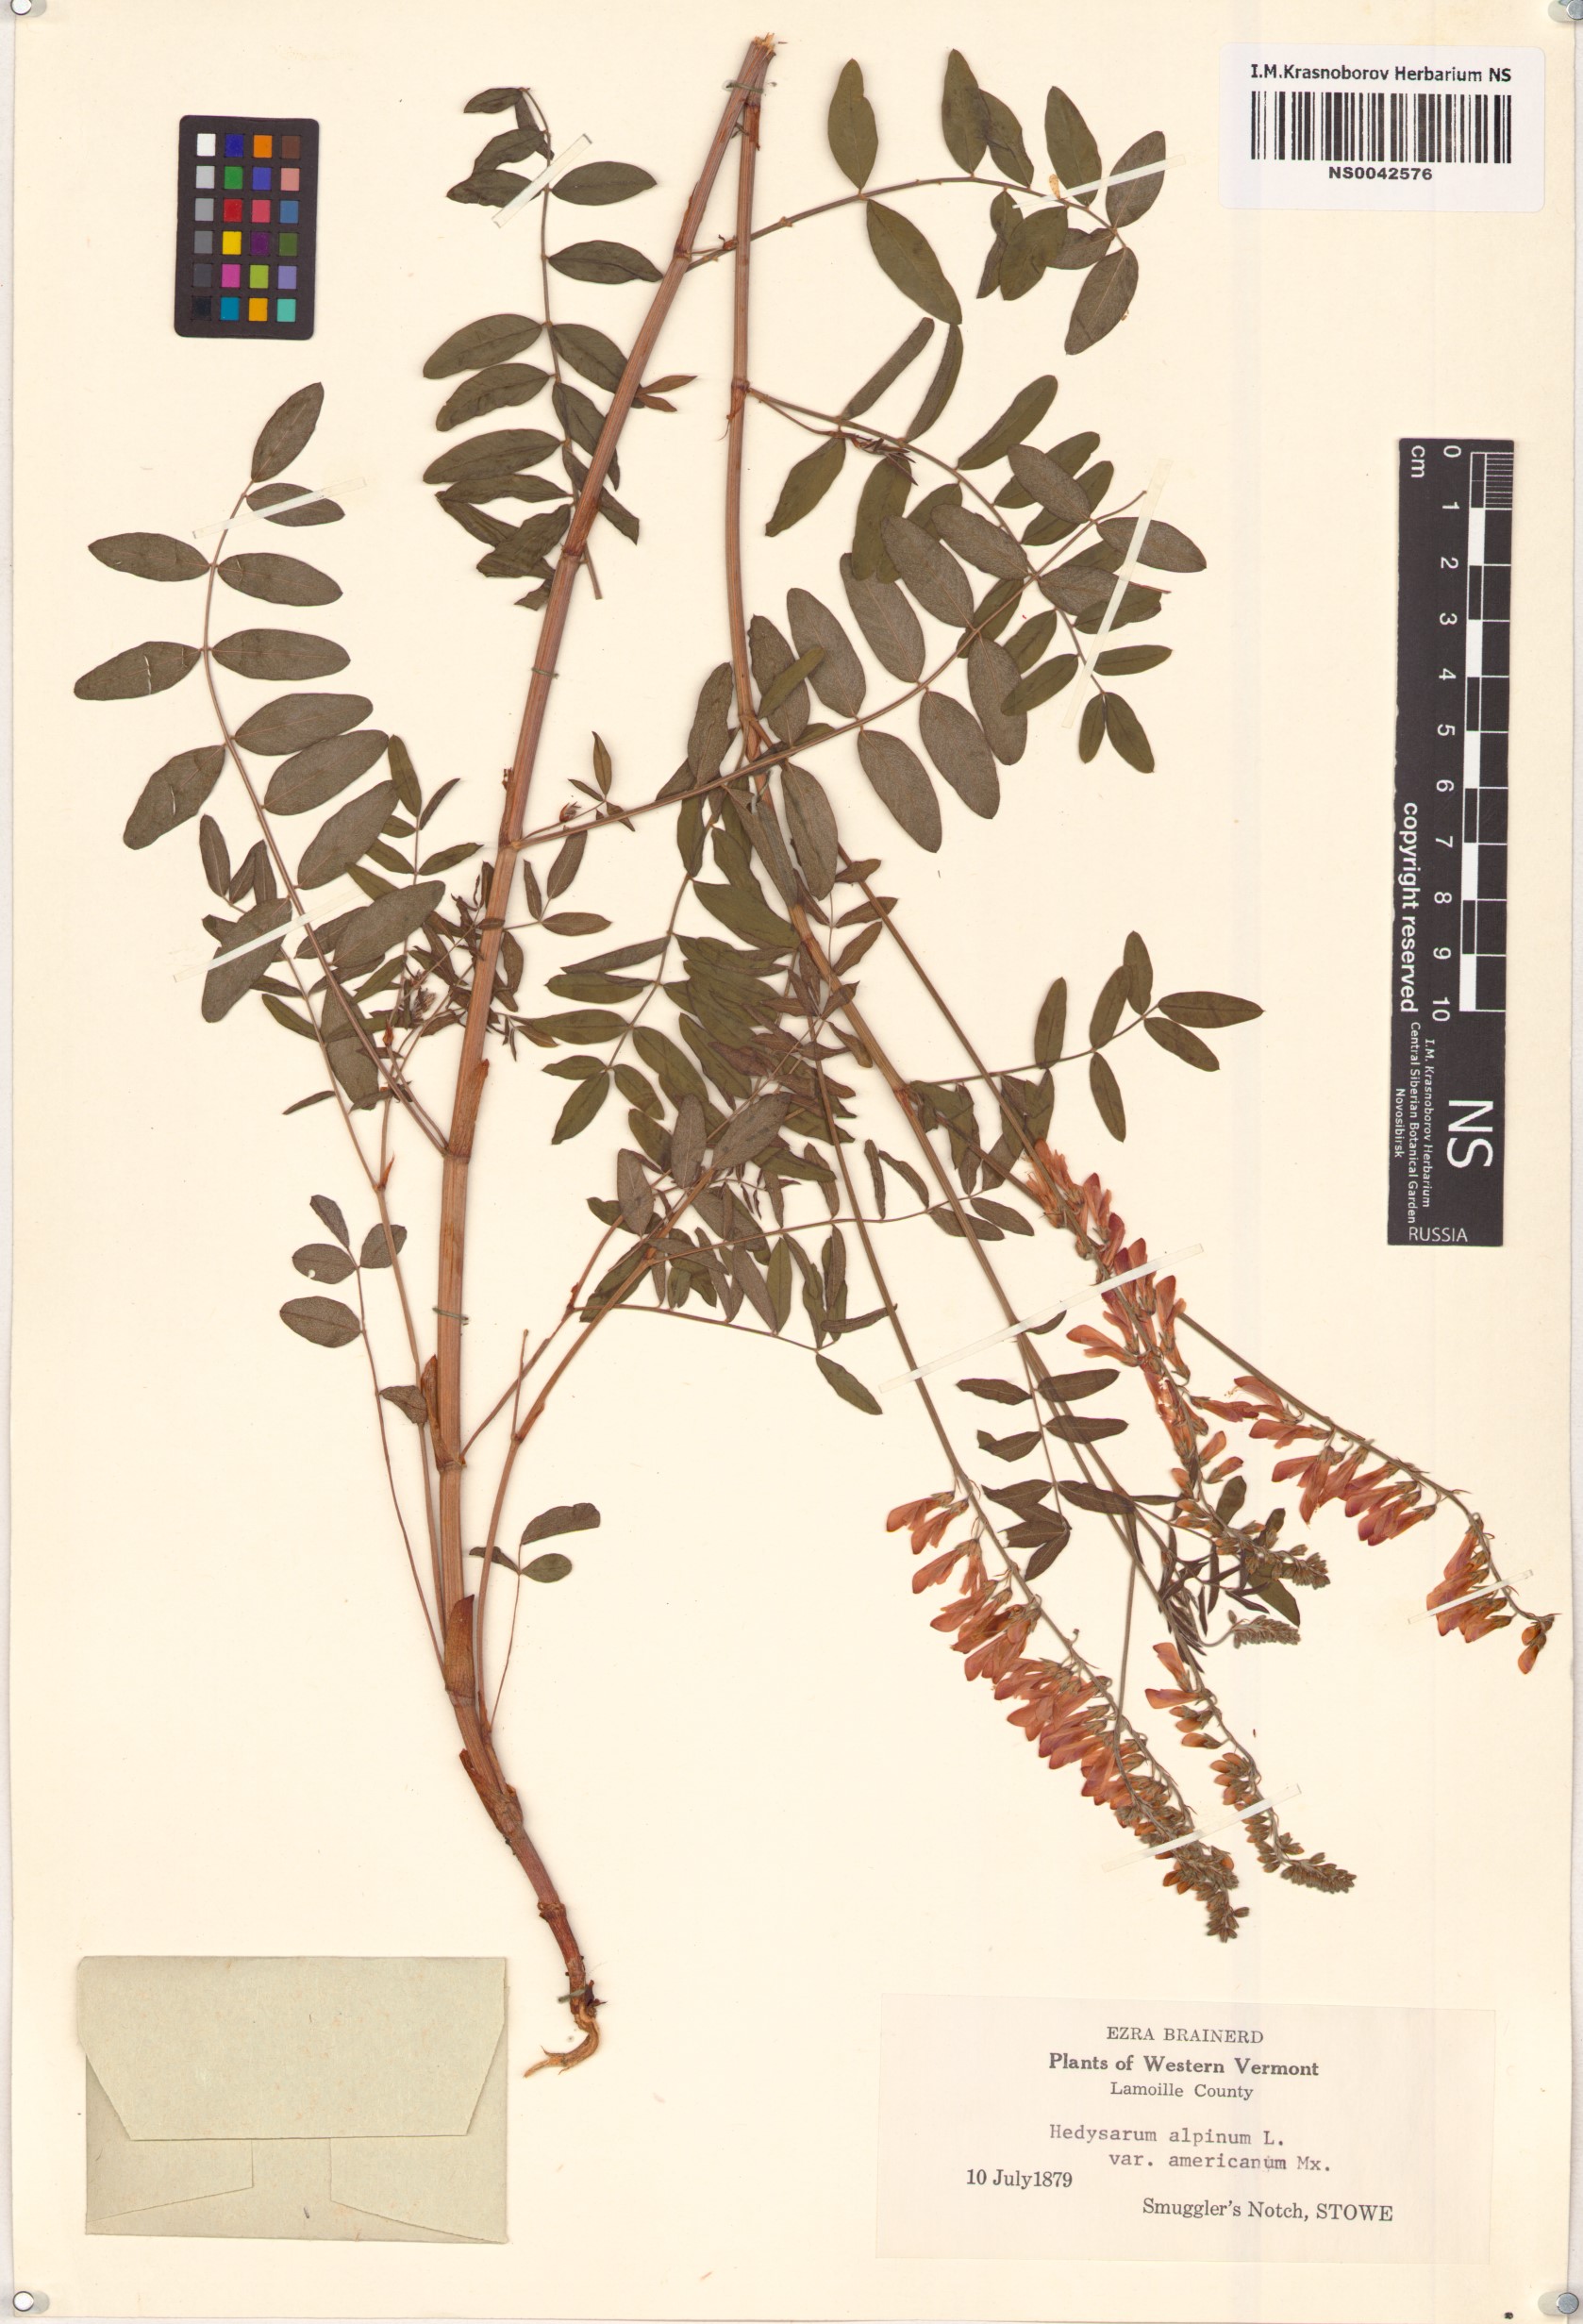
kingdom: Plantae
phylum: Tracheophyta
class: Magnoliopsida
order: Fabales
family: Fabaceae
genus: Hedysarum
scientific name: Hedysarum americanum
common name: Alpine hedysarum
